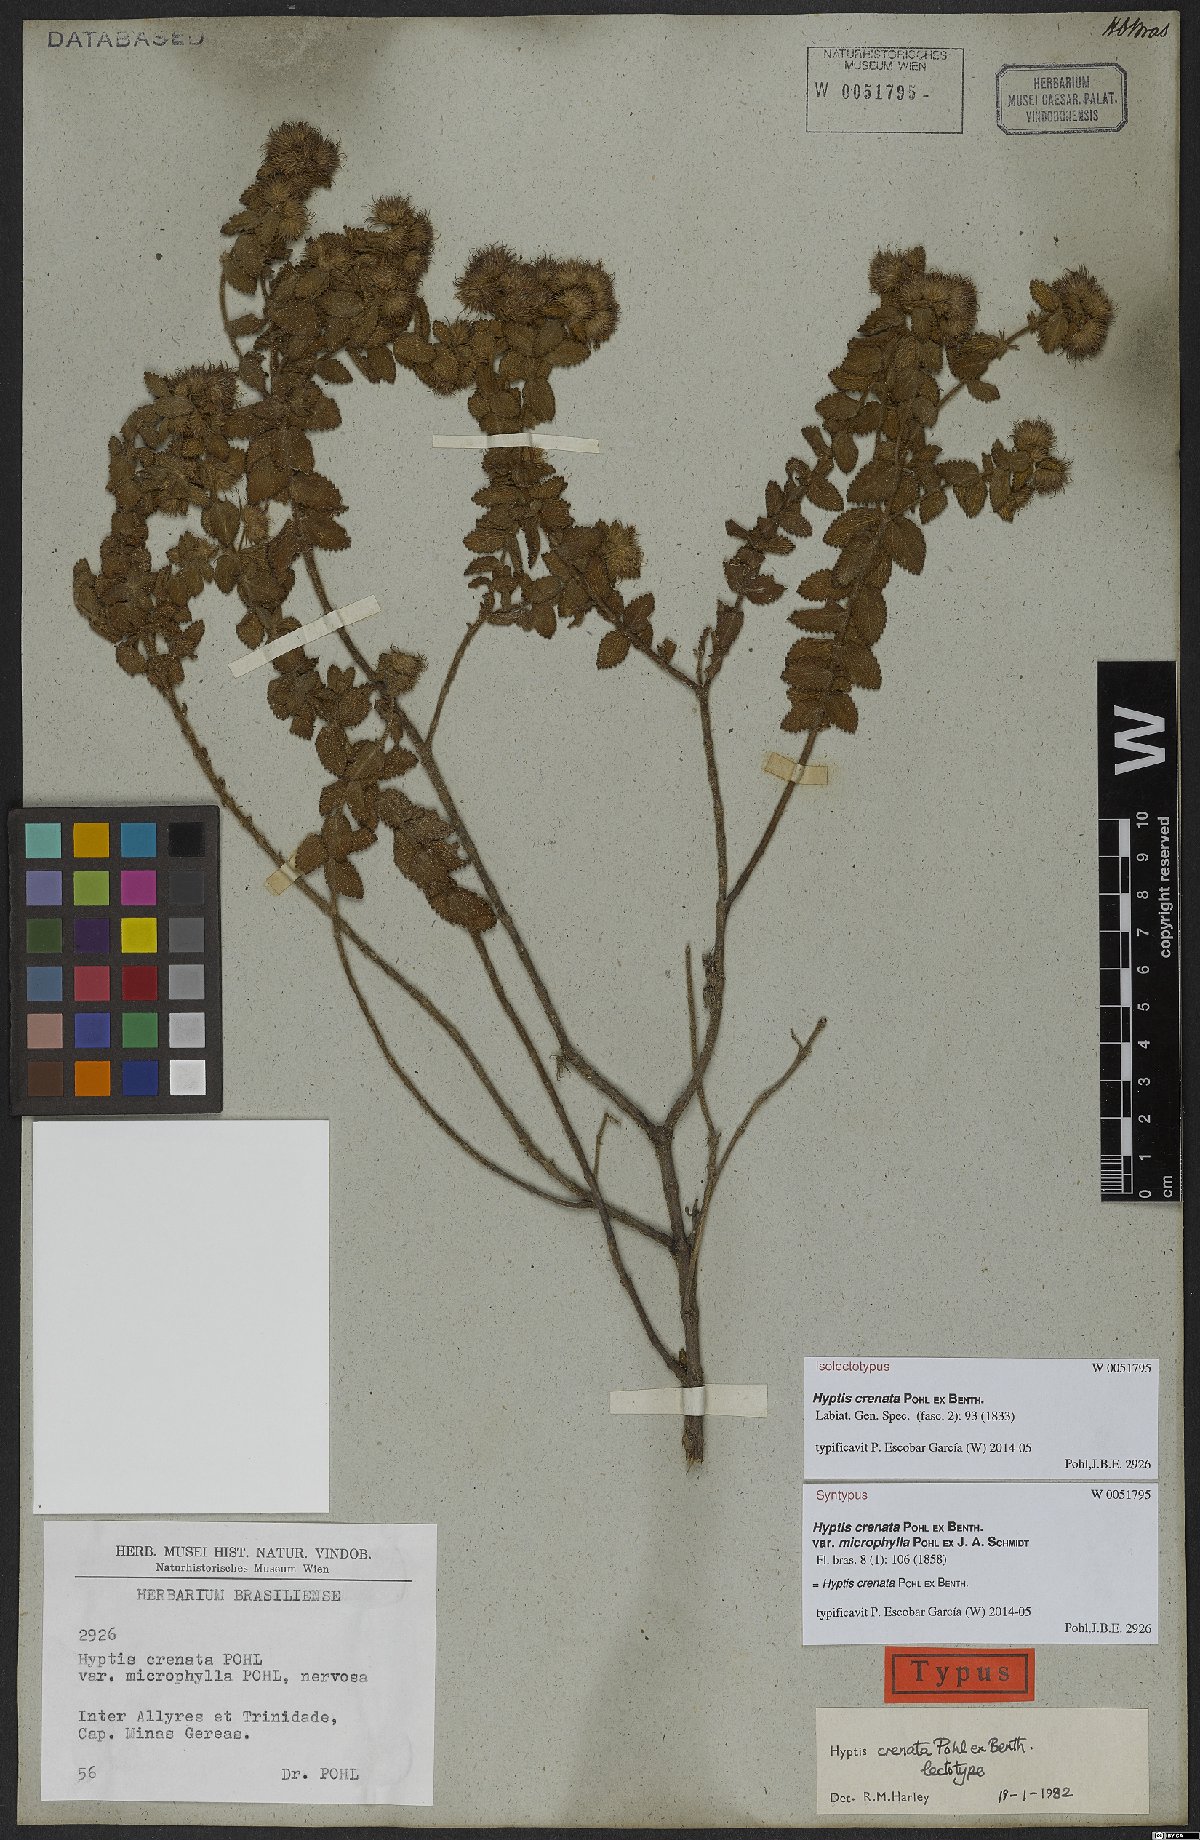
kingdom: Plantae
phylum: Tracheophyta
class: Magnoliopsida
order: Lamiales
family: Lamiaceae
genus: Hyptis
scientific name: Hyptis crenata
